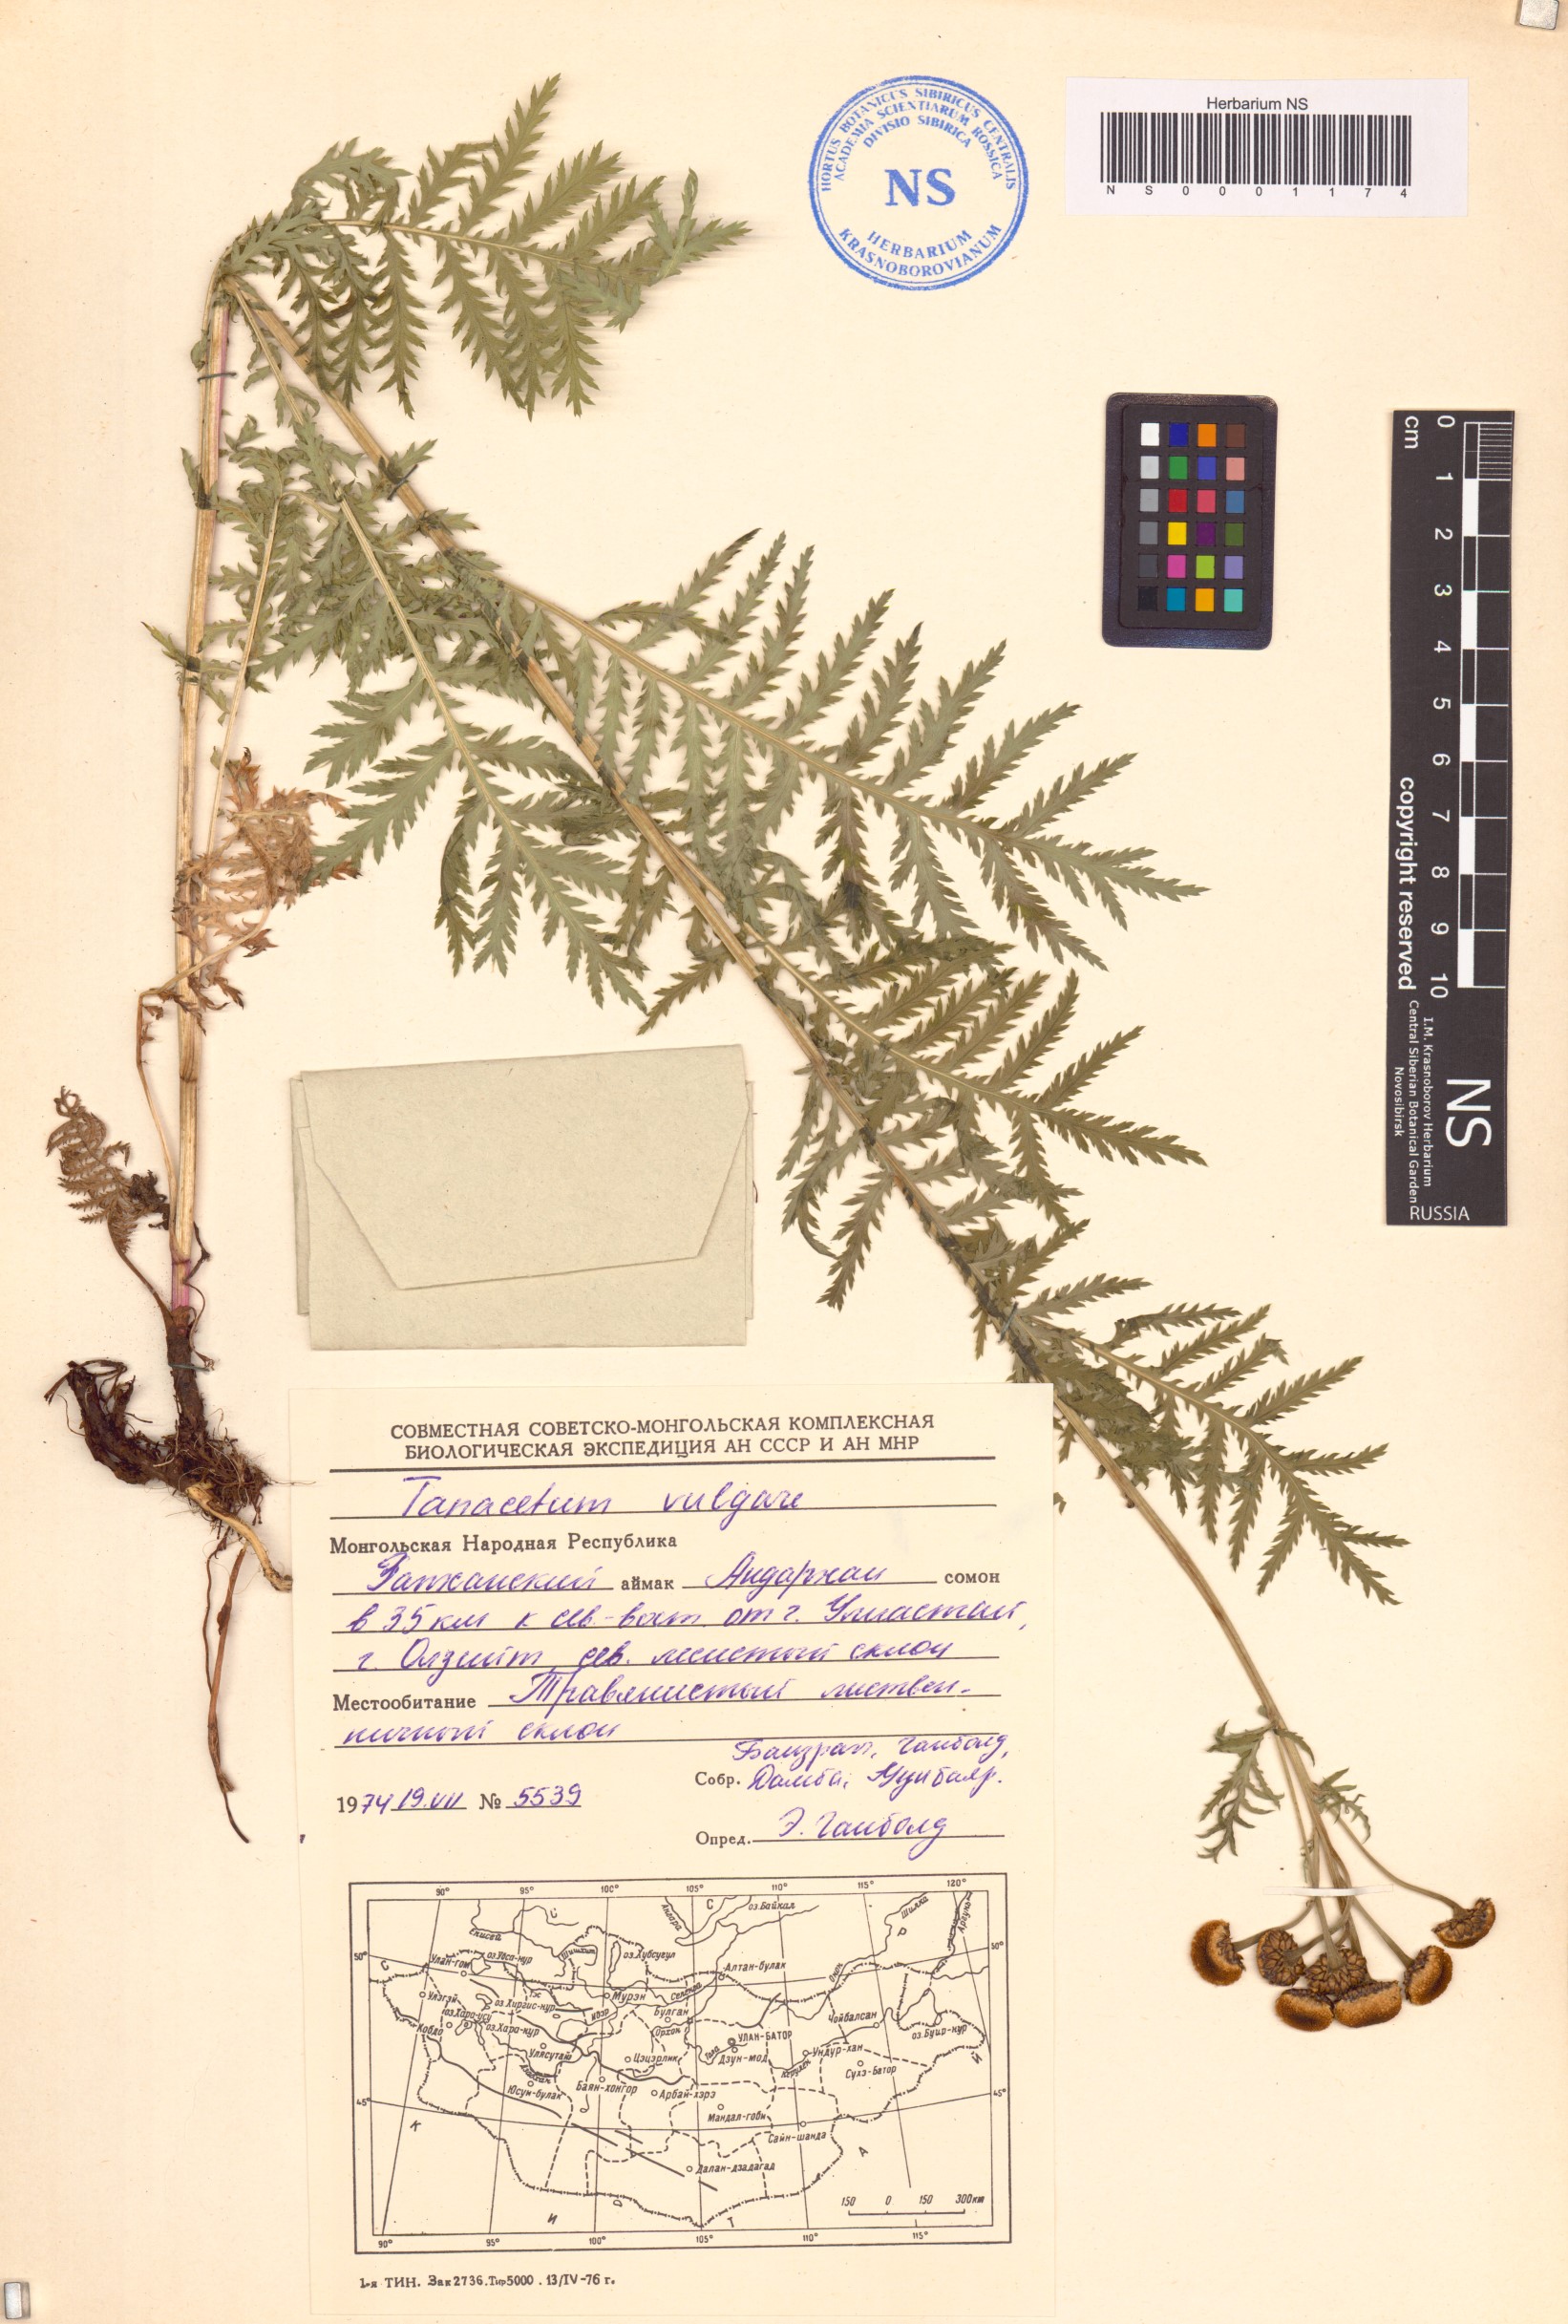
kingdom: Plantae
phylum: Tracheophyta
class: Magnoliopsida
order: Asterales
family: Asteraceae
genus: Tanacetum
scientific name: Tanacetum vulgare
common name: Common tansy
